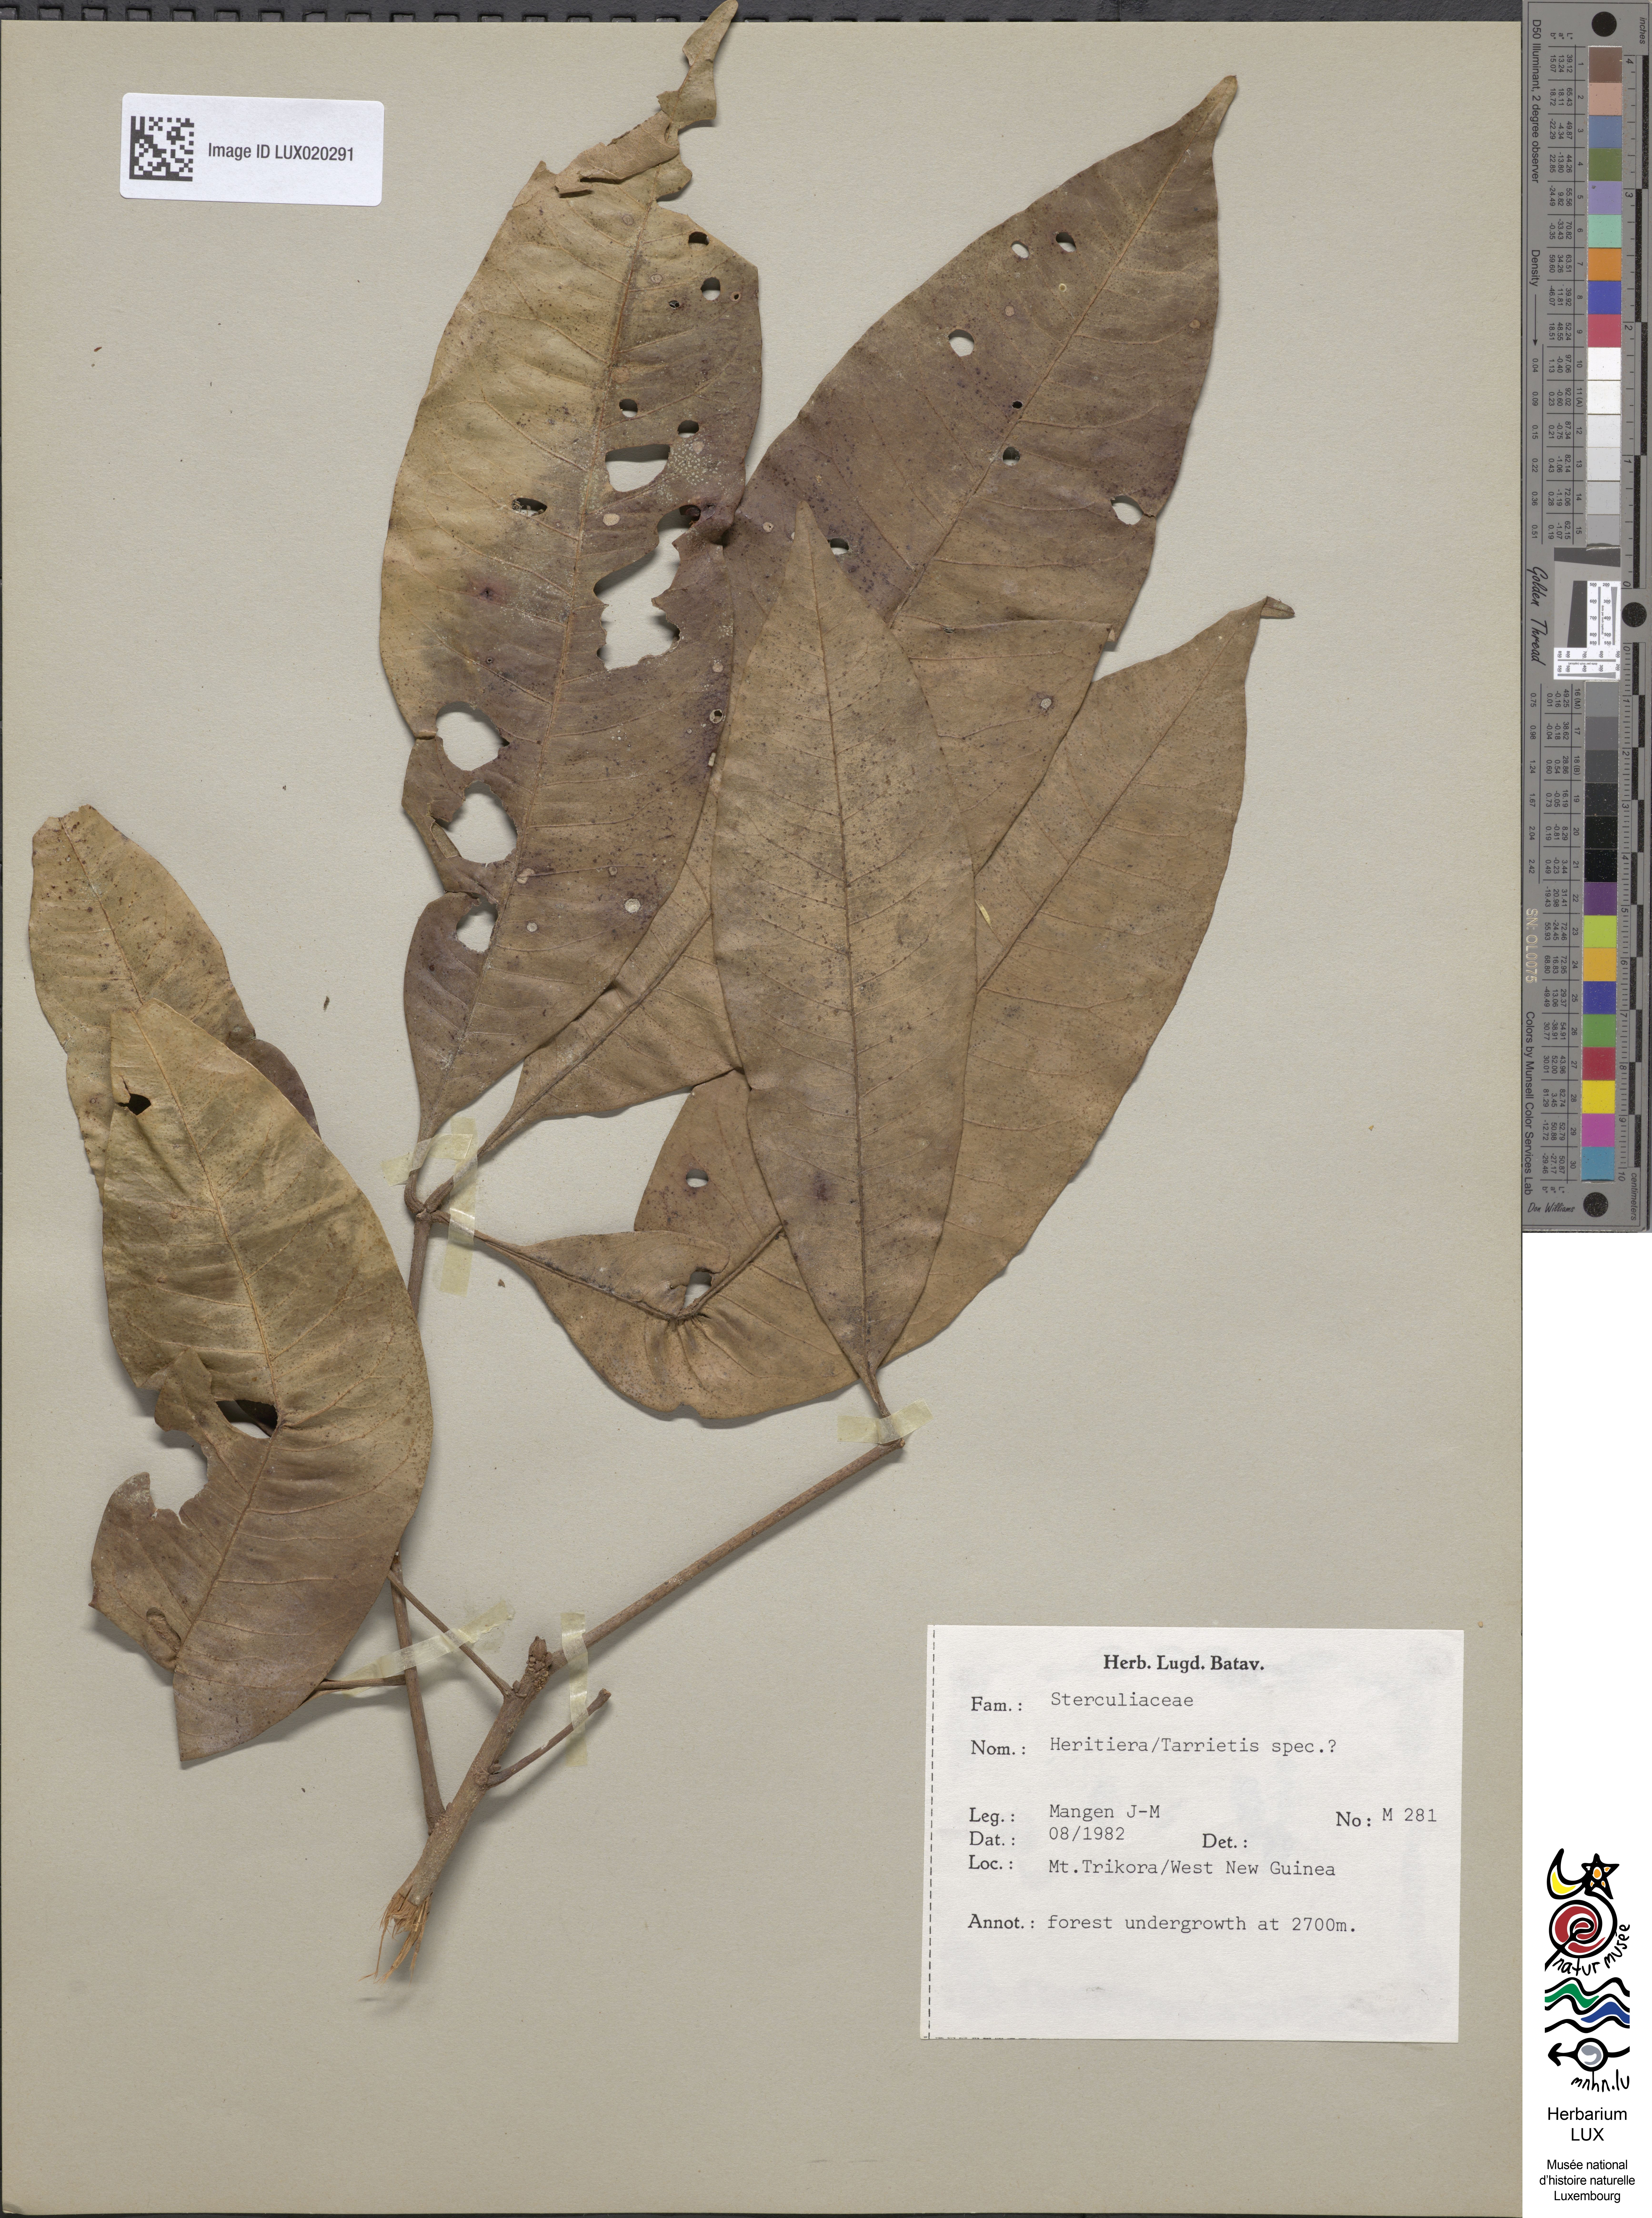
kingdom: Plantae
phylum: Tracheophyta
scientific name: Tracheophyta
